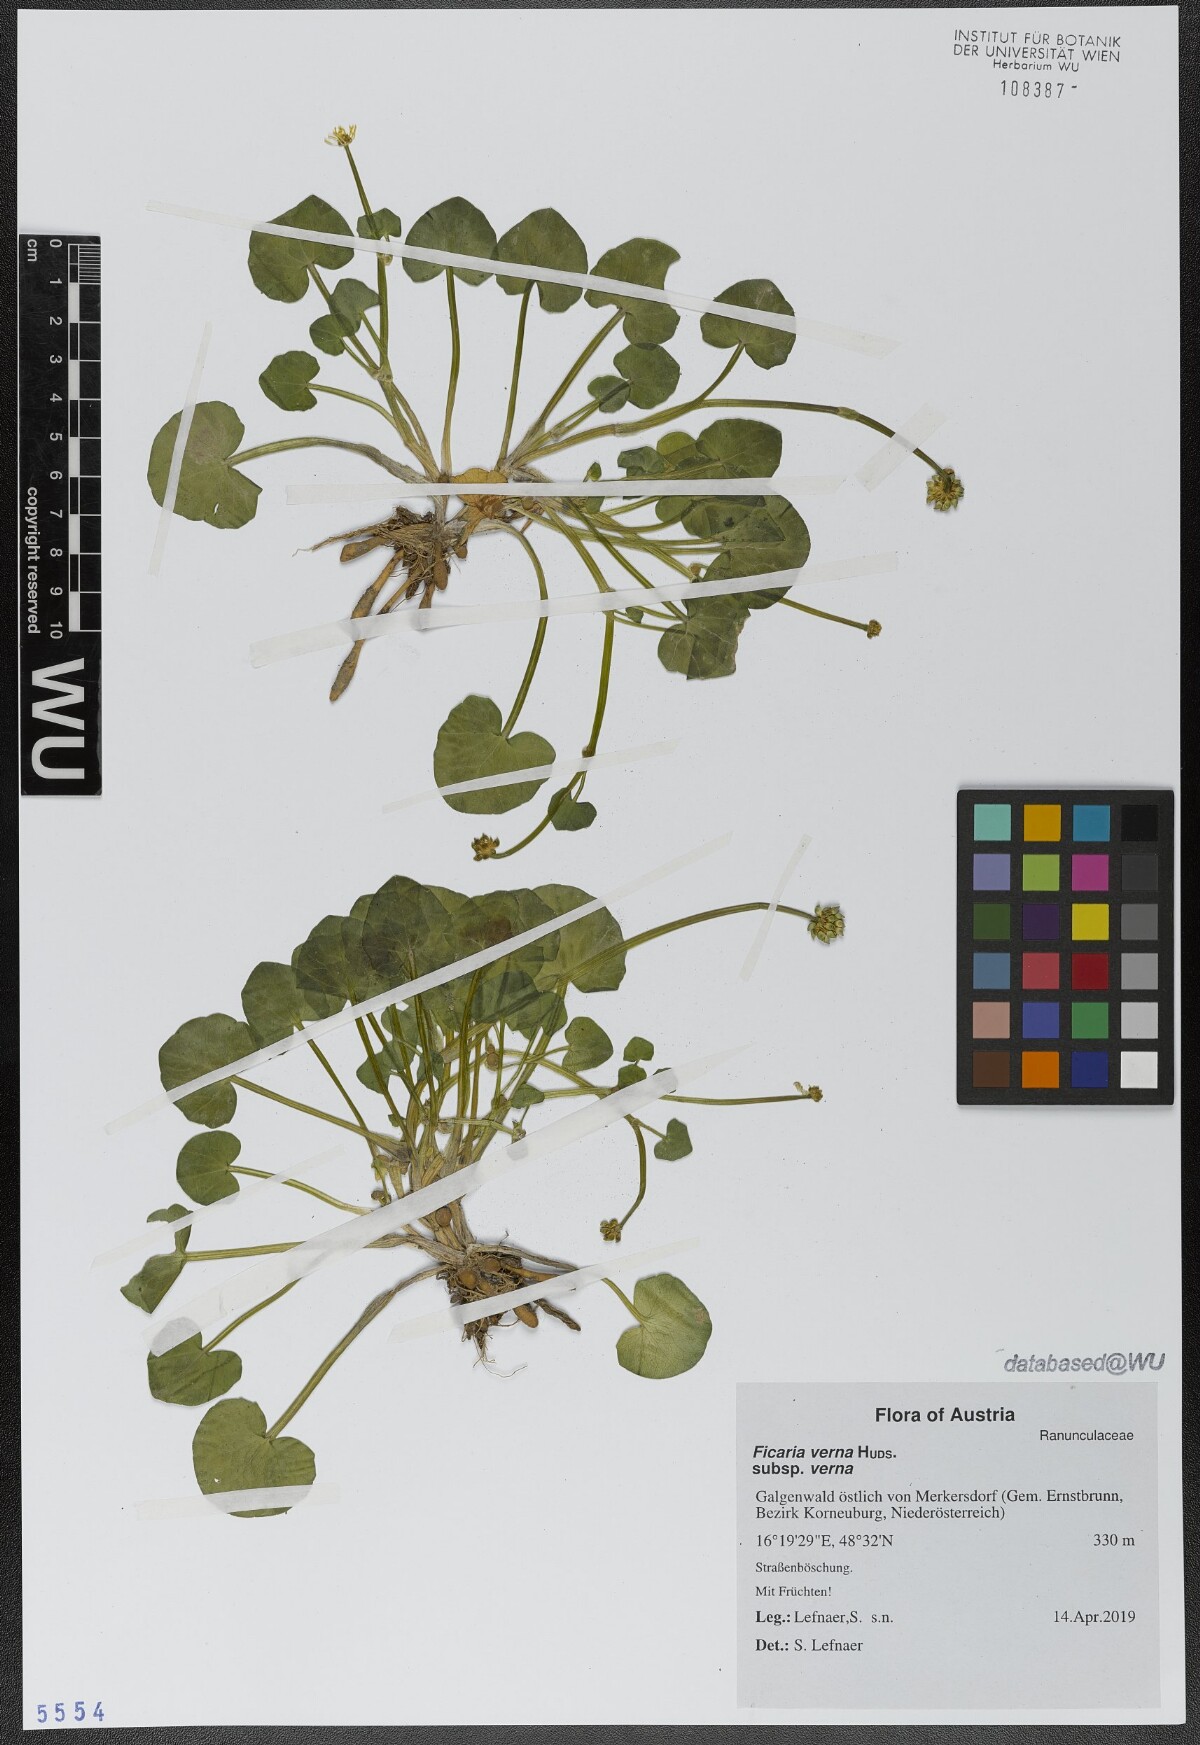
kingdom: Plantae
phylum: Tracheophyta
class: Magnoliopsida
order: Ranunculales
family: Ranunculaceae
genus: Ficaria
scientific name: Ficaria verna
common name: Lesser celandine
